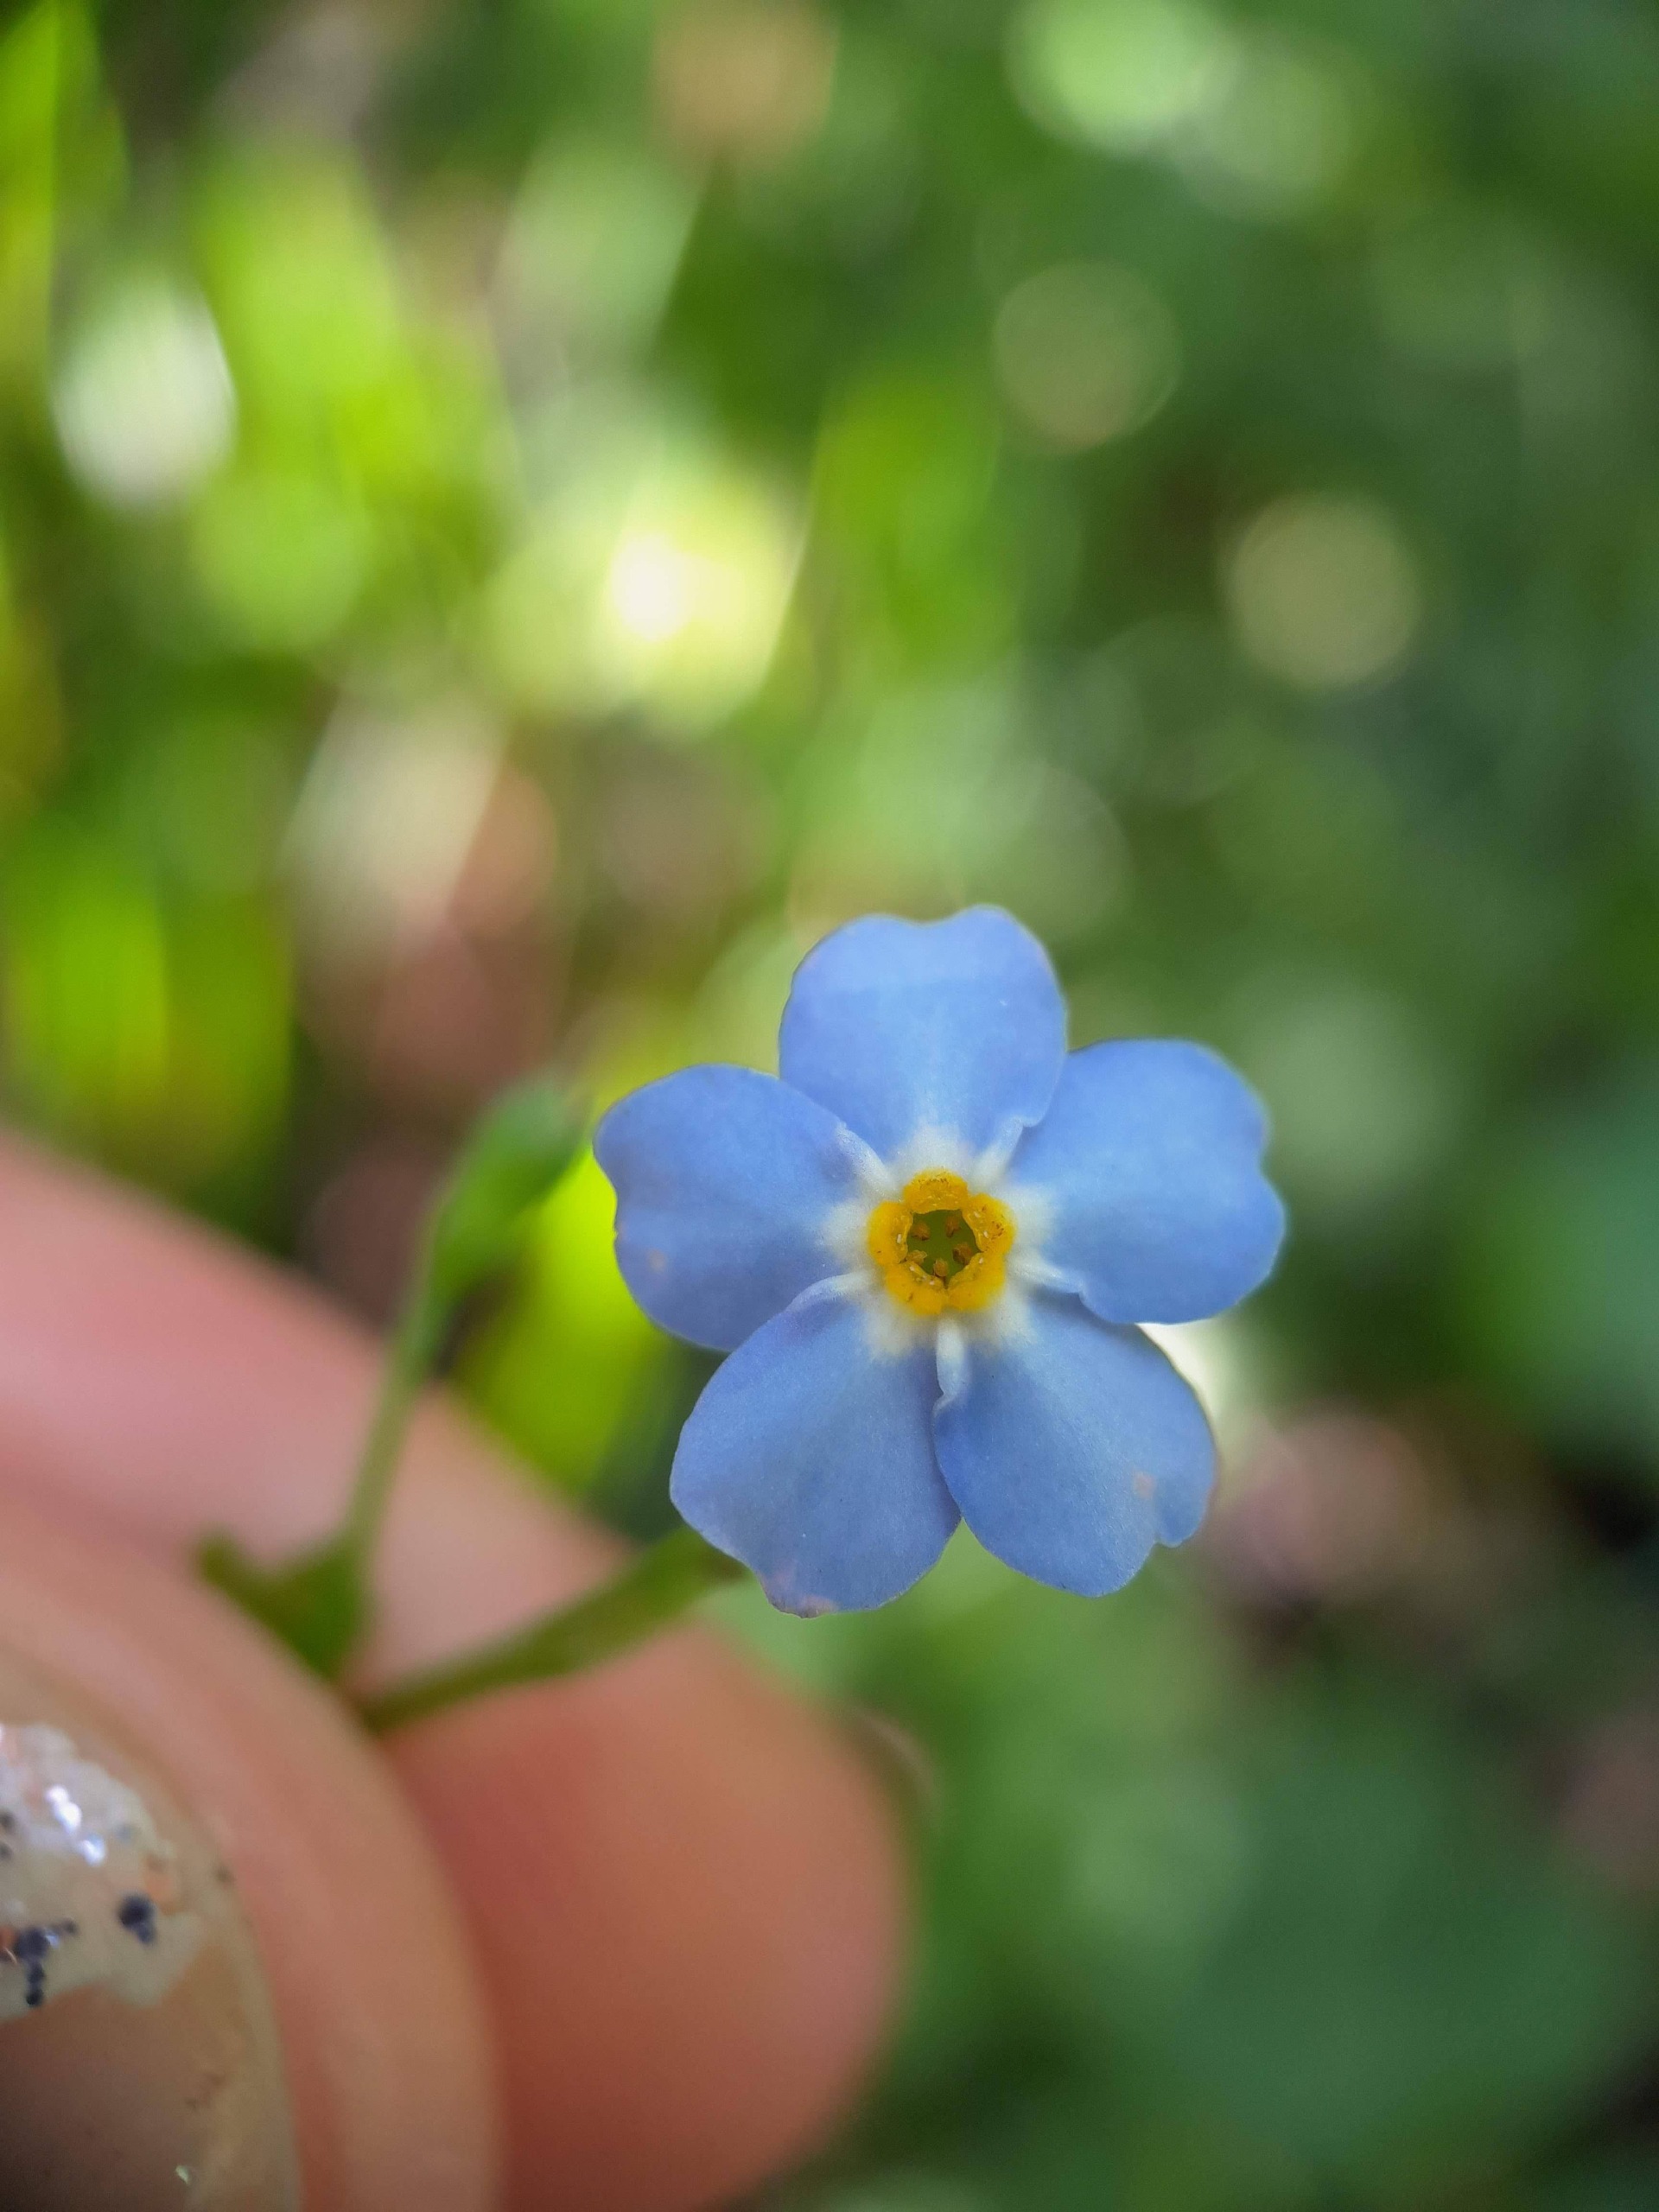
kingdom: Plantae
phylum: Tracheophyta
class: Magnoliopsida
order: Boraginales
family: Boraginaceae
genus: Myosotis
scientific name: Myosotis scorpioides
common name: Eng-forglemmigej
